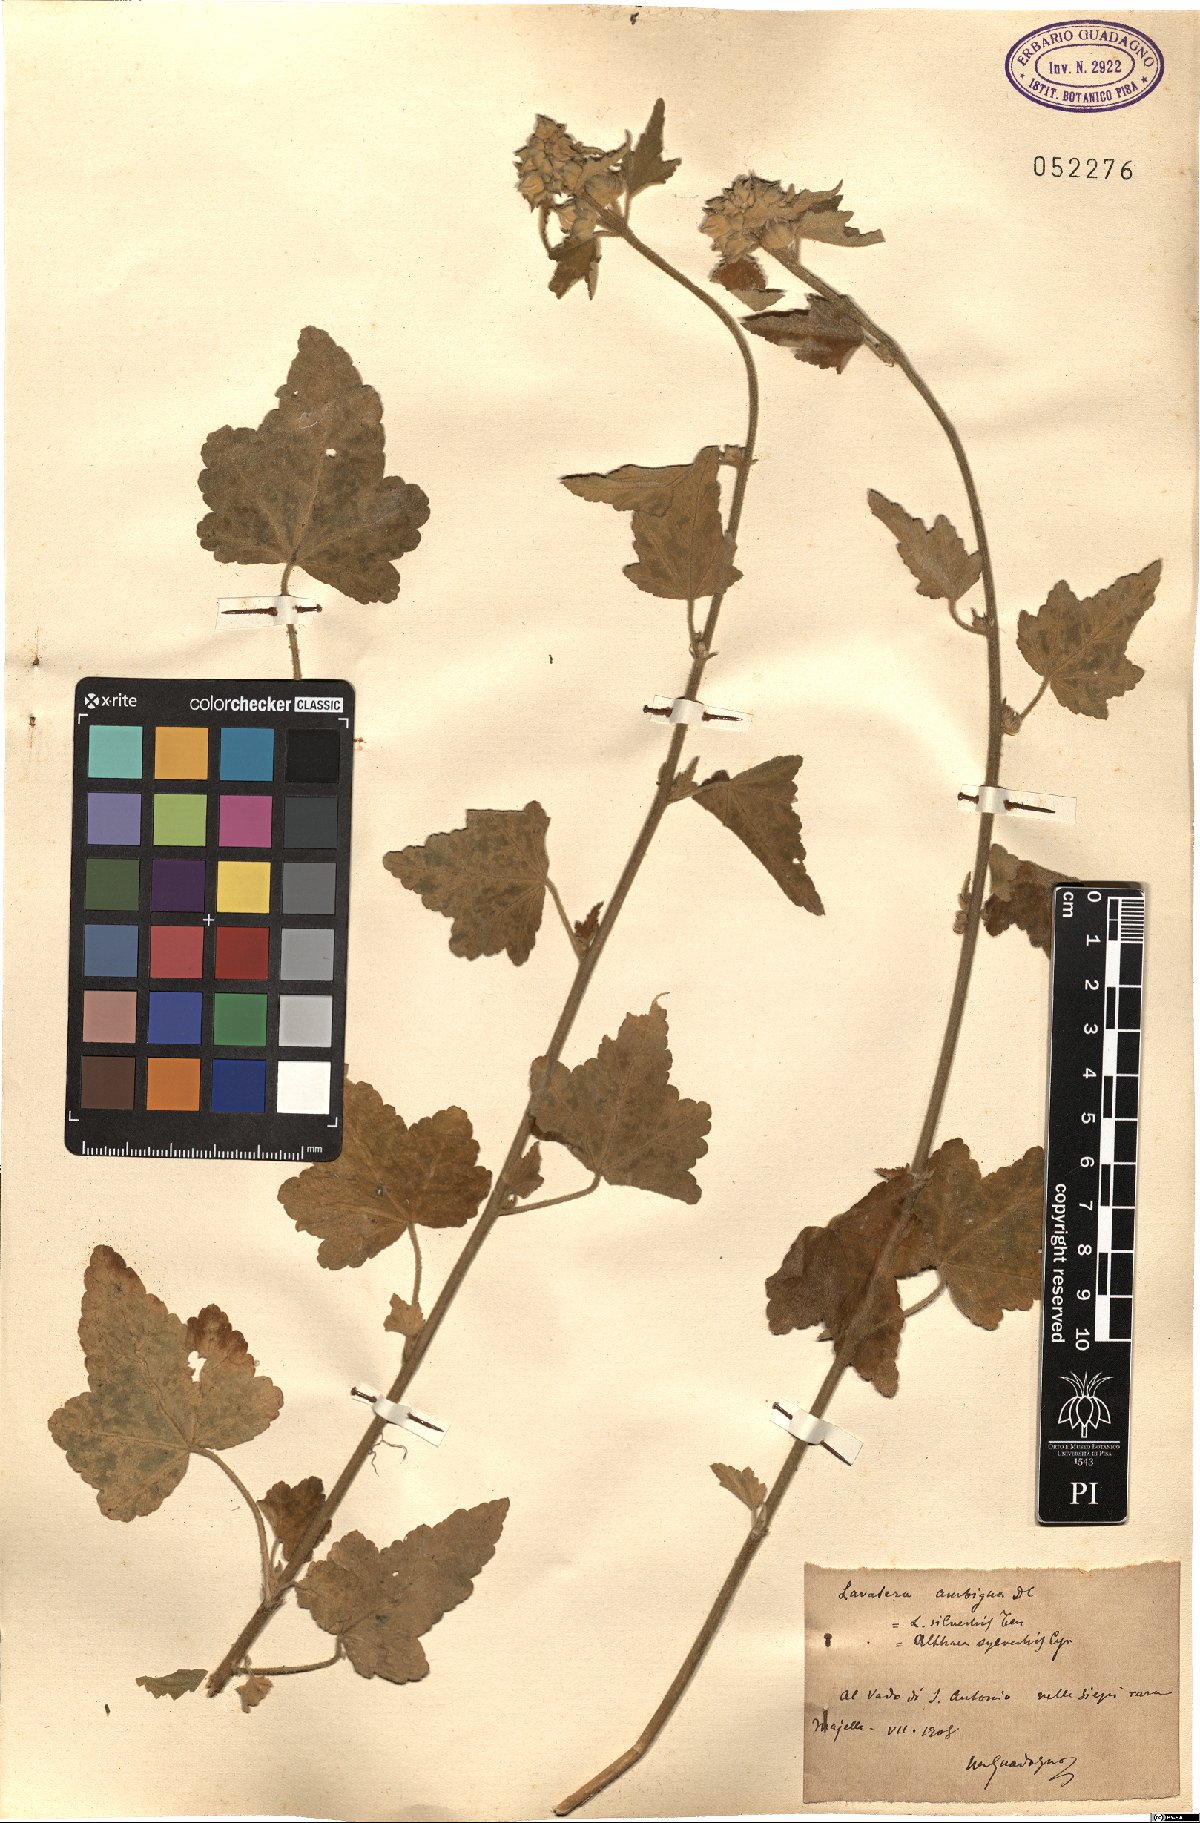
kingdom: Plantae
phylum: Tracheophyta
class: Magnoliopsida
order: Malvales
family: Malvaceae
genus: Malva
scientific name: Malva thuringiaca
